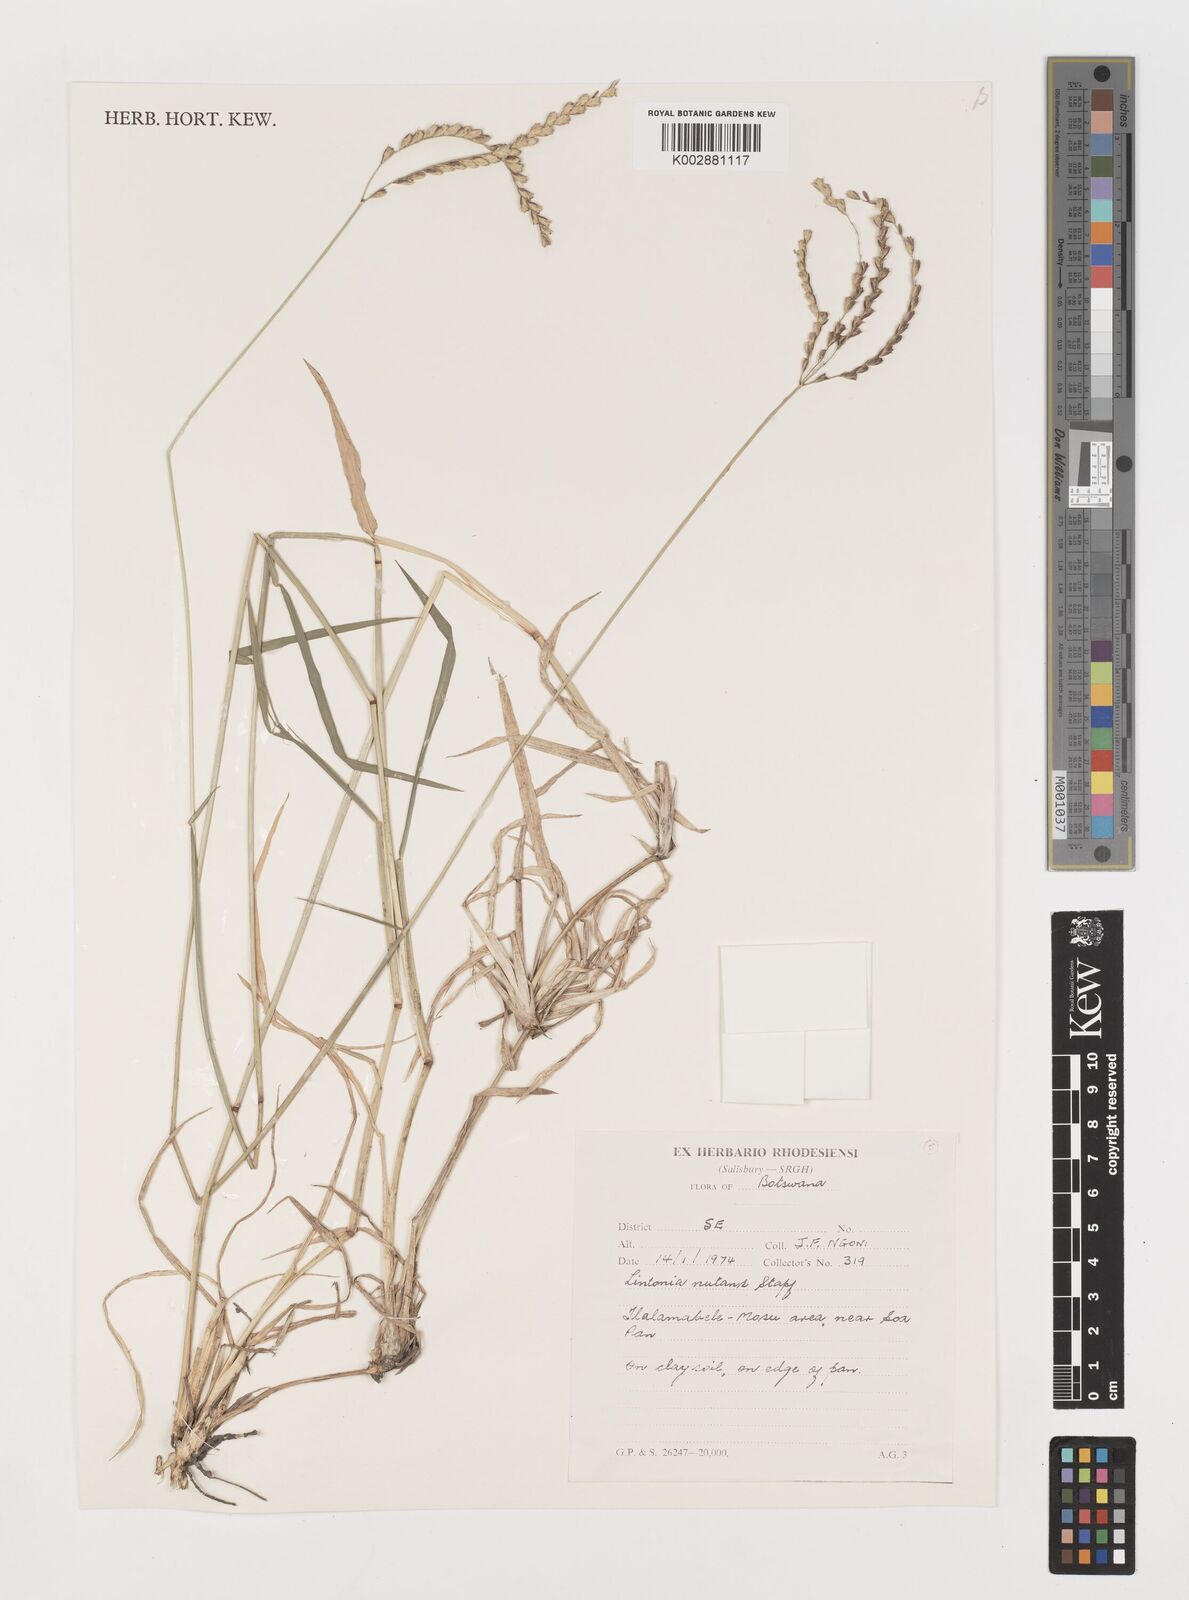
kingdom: Plantae
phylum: Tracheophyta
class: Liliopsida
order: Poales
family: Poaceae
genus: Chloris
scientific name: Chloris nutans
